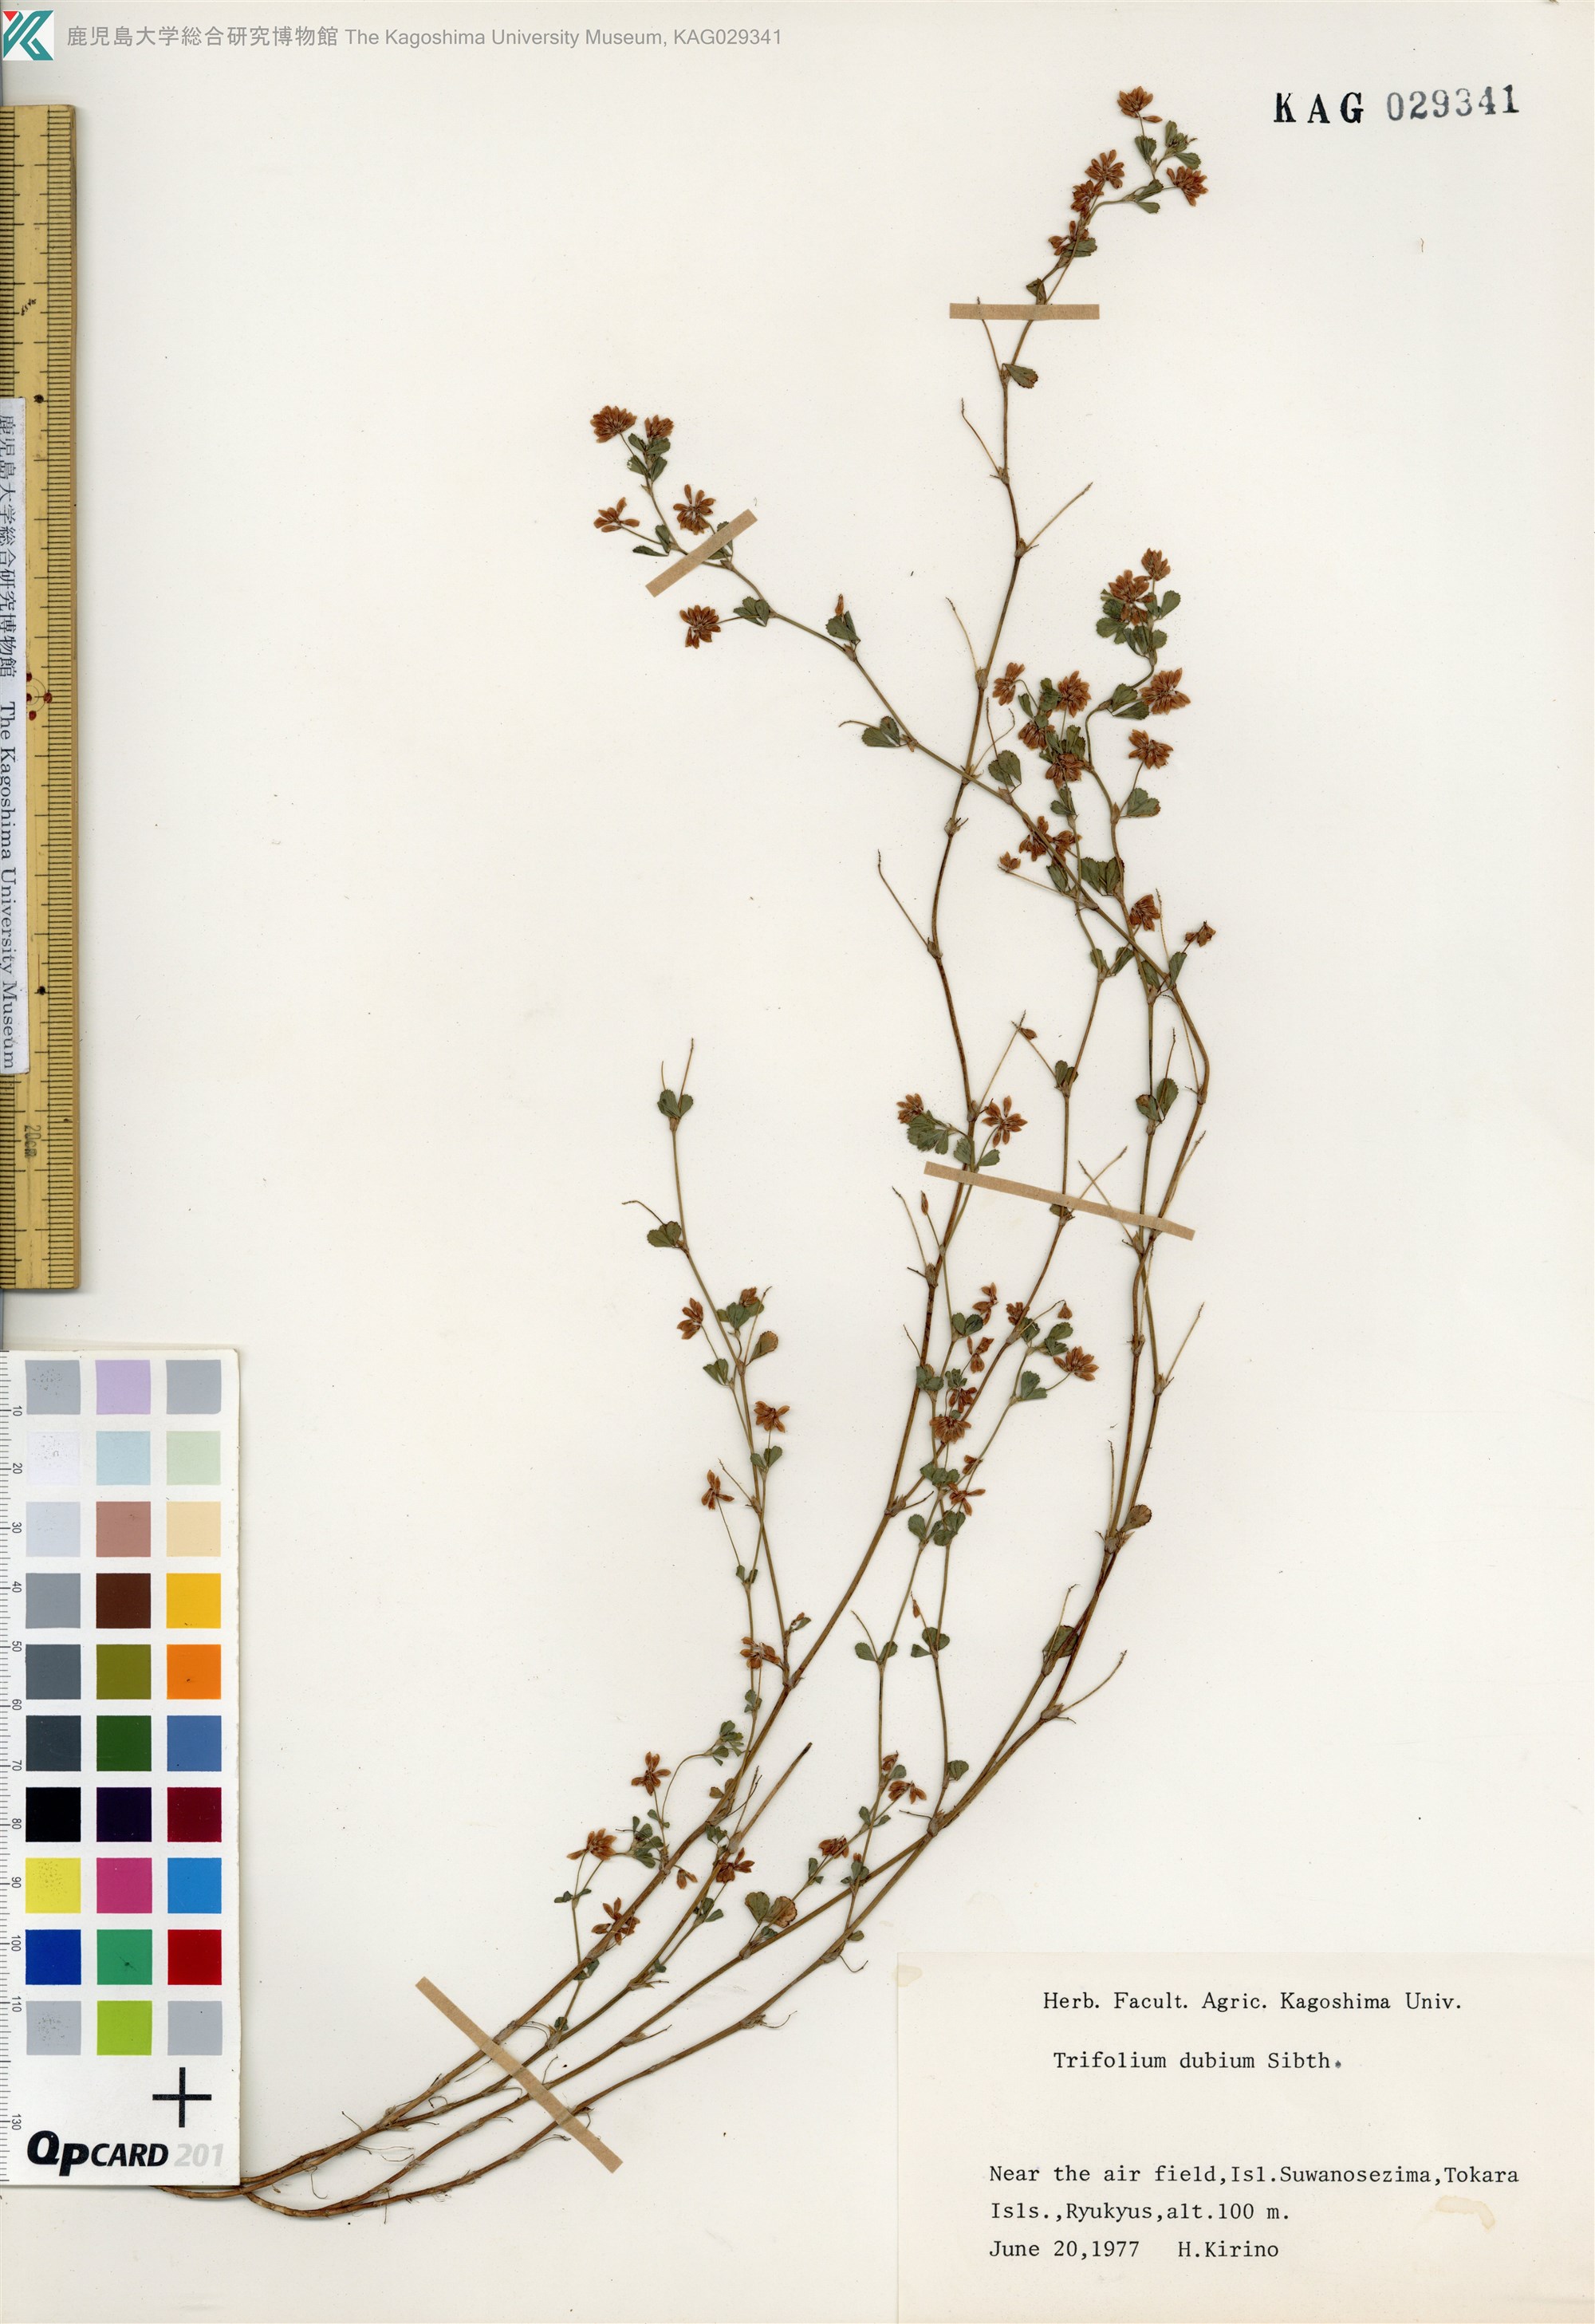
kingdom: Plantae
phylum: Tracheophyta
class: Magnoliopsida
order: Fabales
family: Fabaceae
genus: Trifolium
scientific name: Trifolium dubium
